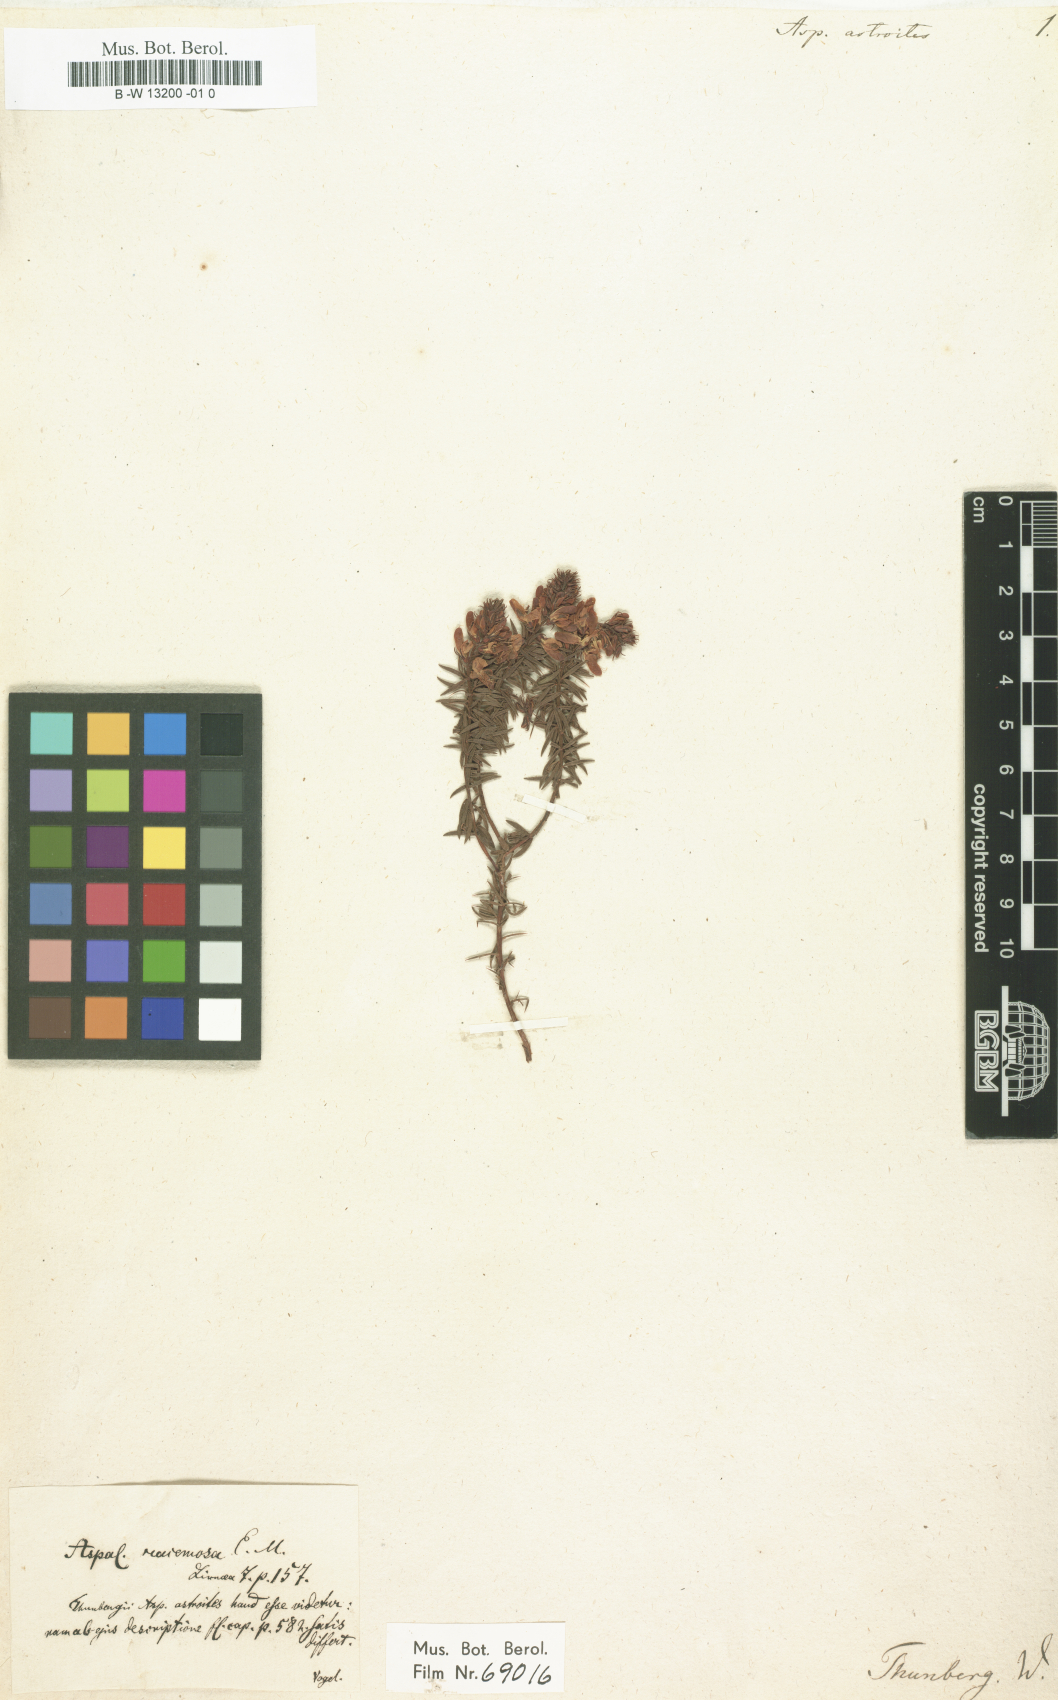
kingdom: Plantae
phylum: Tracheophyta
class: Magnoliopsida
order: Fabales
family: Fabaceae
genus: Aspalathus
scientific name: Aspalathus astroites
